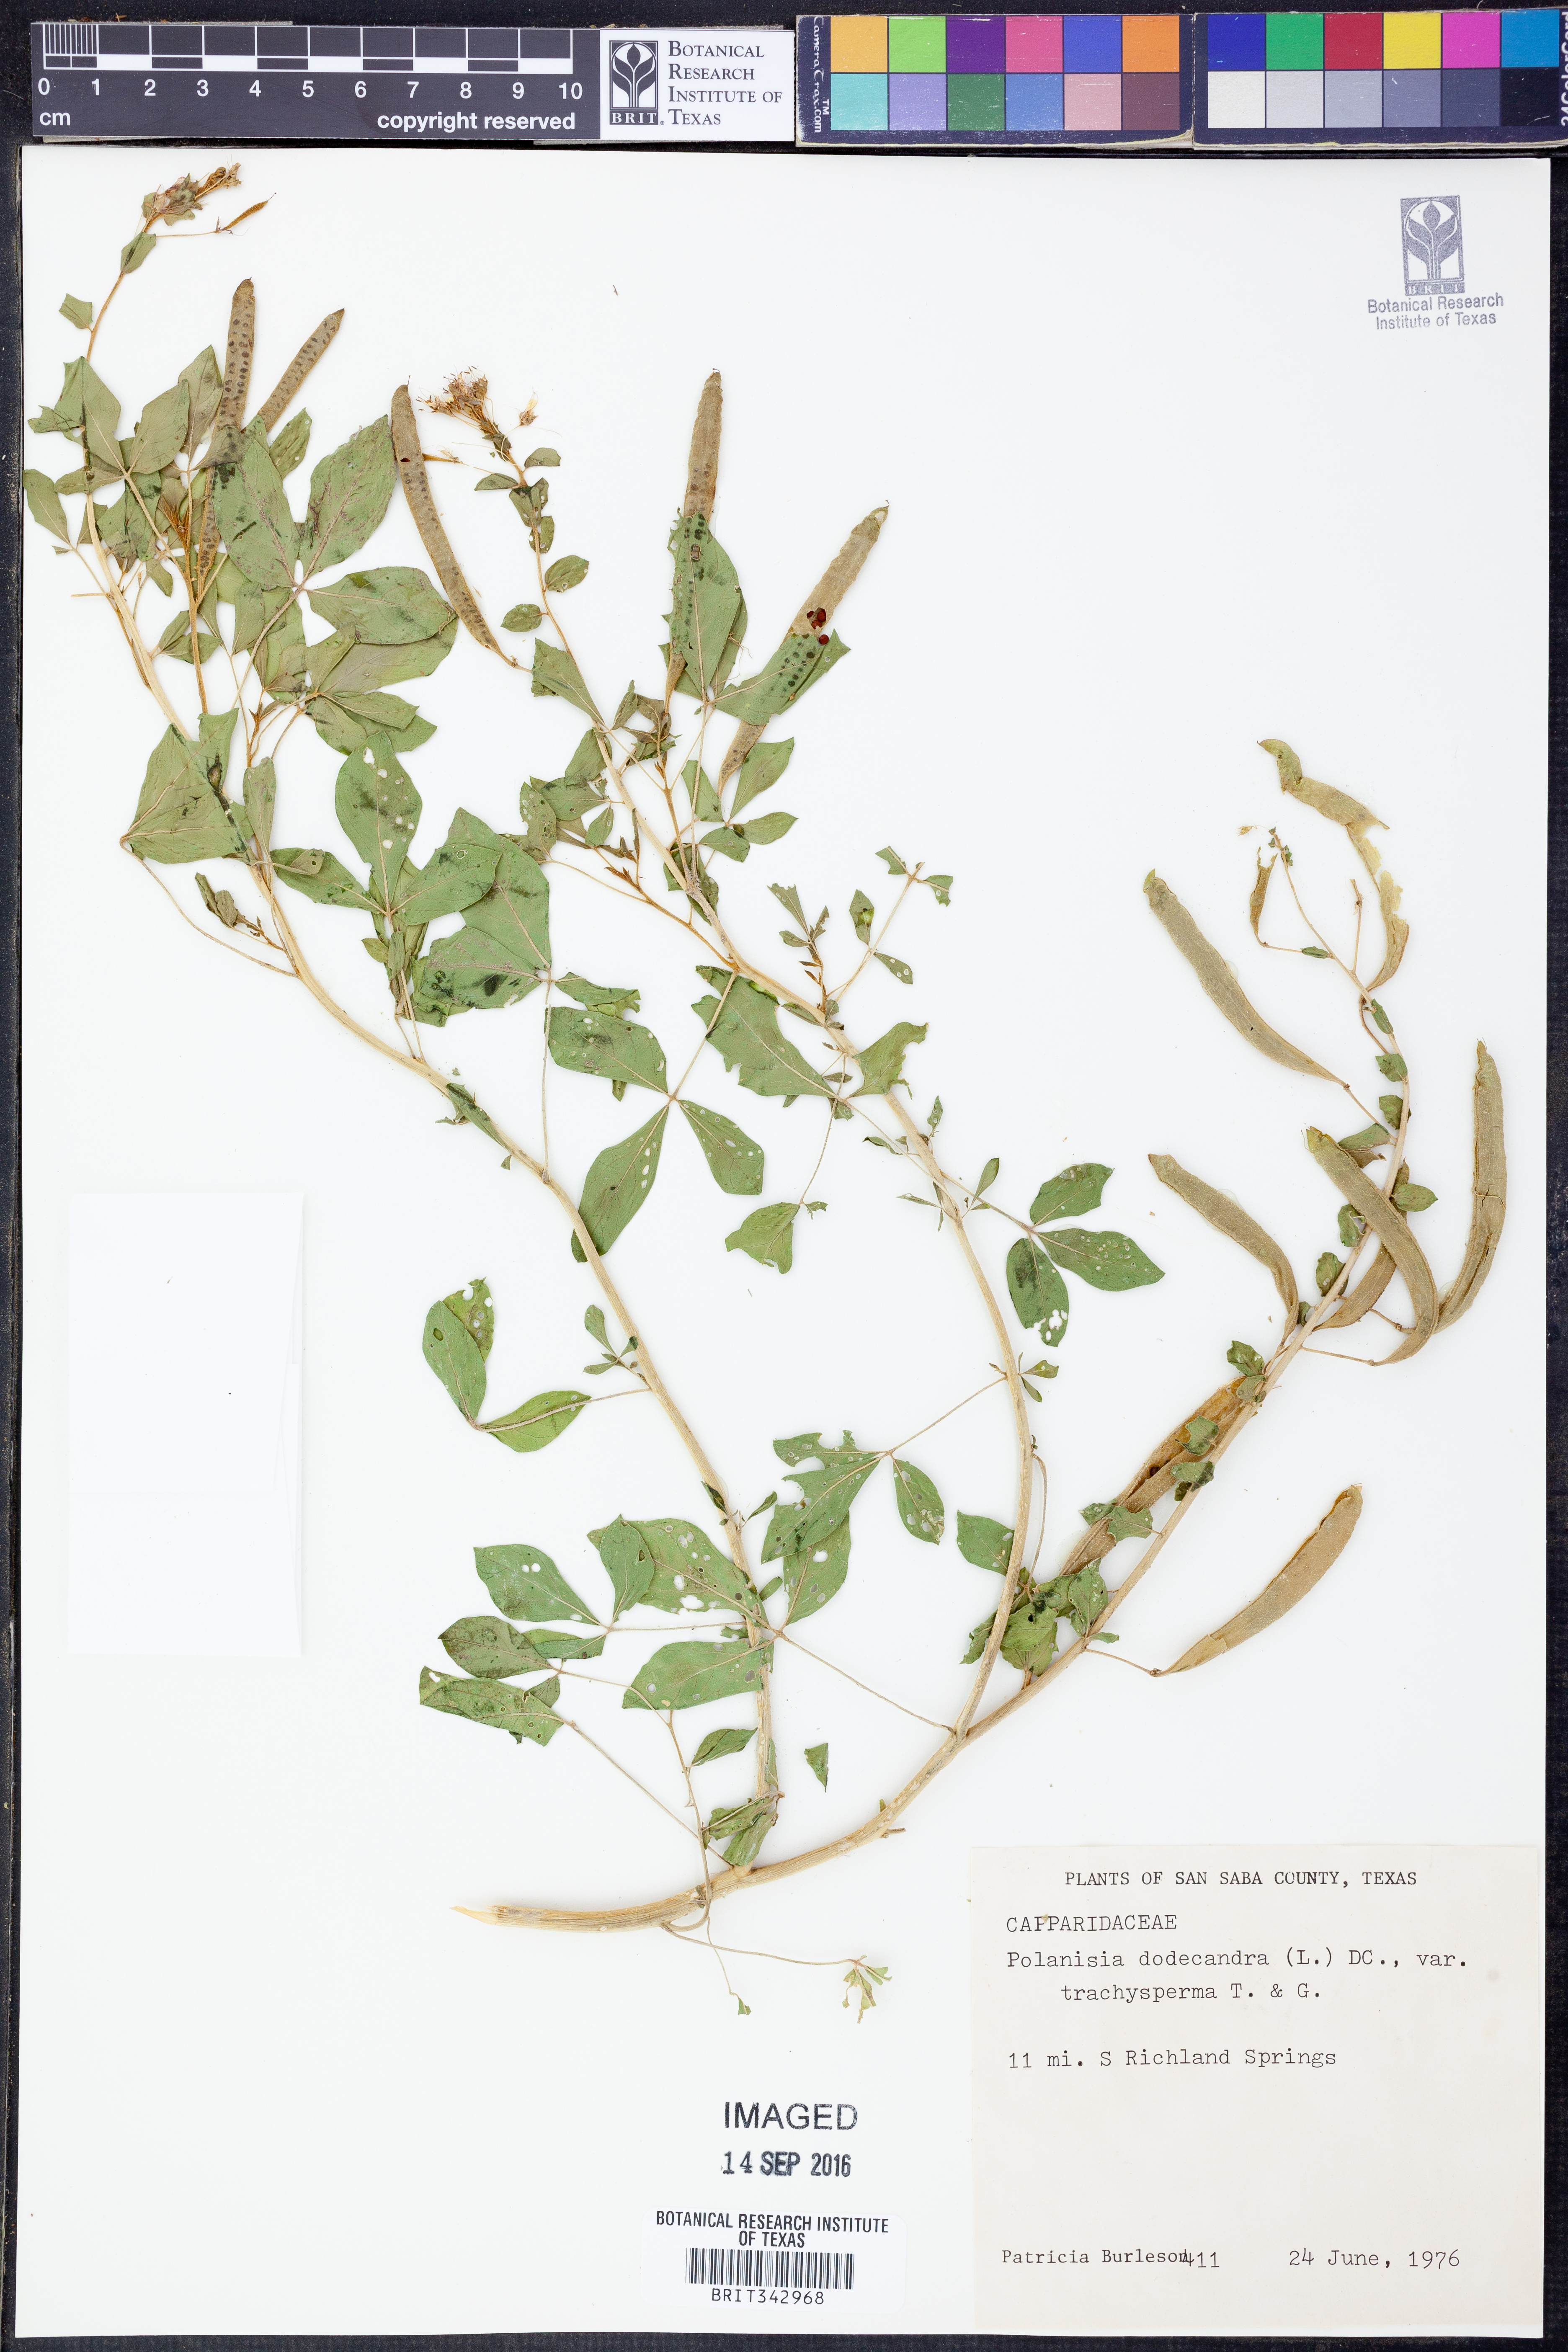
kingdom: Plantae
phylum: Tracheophyta
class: Magnoliopsida
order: Brassicales
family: Cleomaceae
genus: Polanisia
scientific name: Polanisia trachysperma
